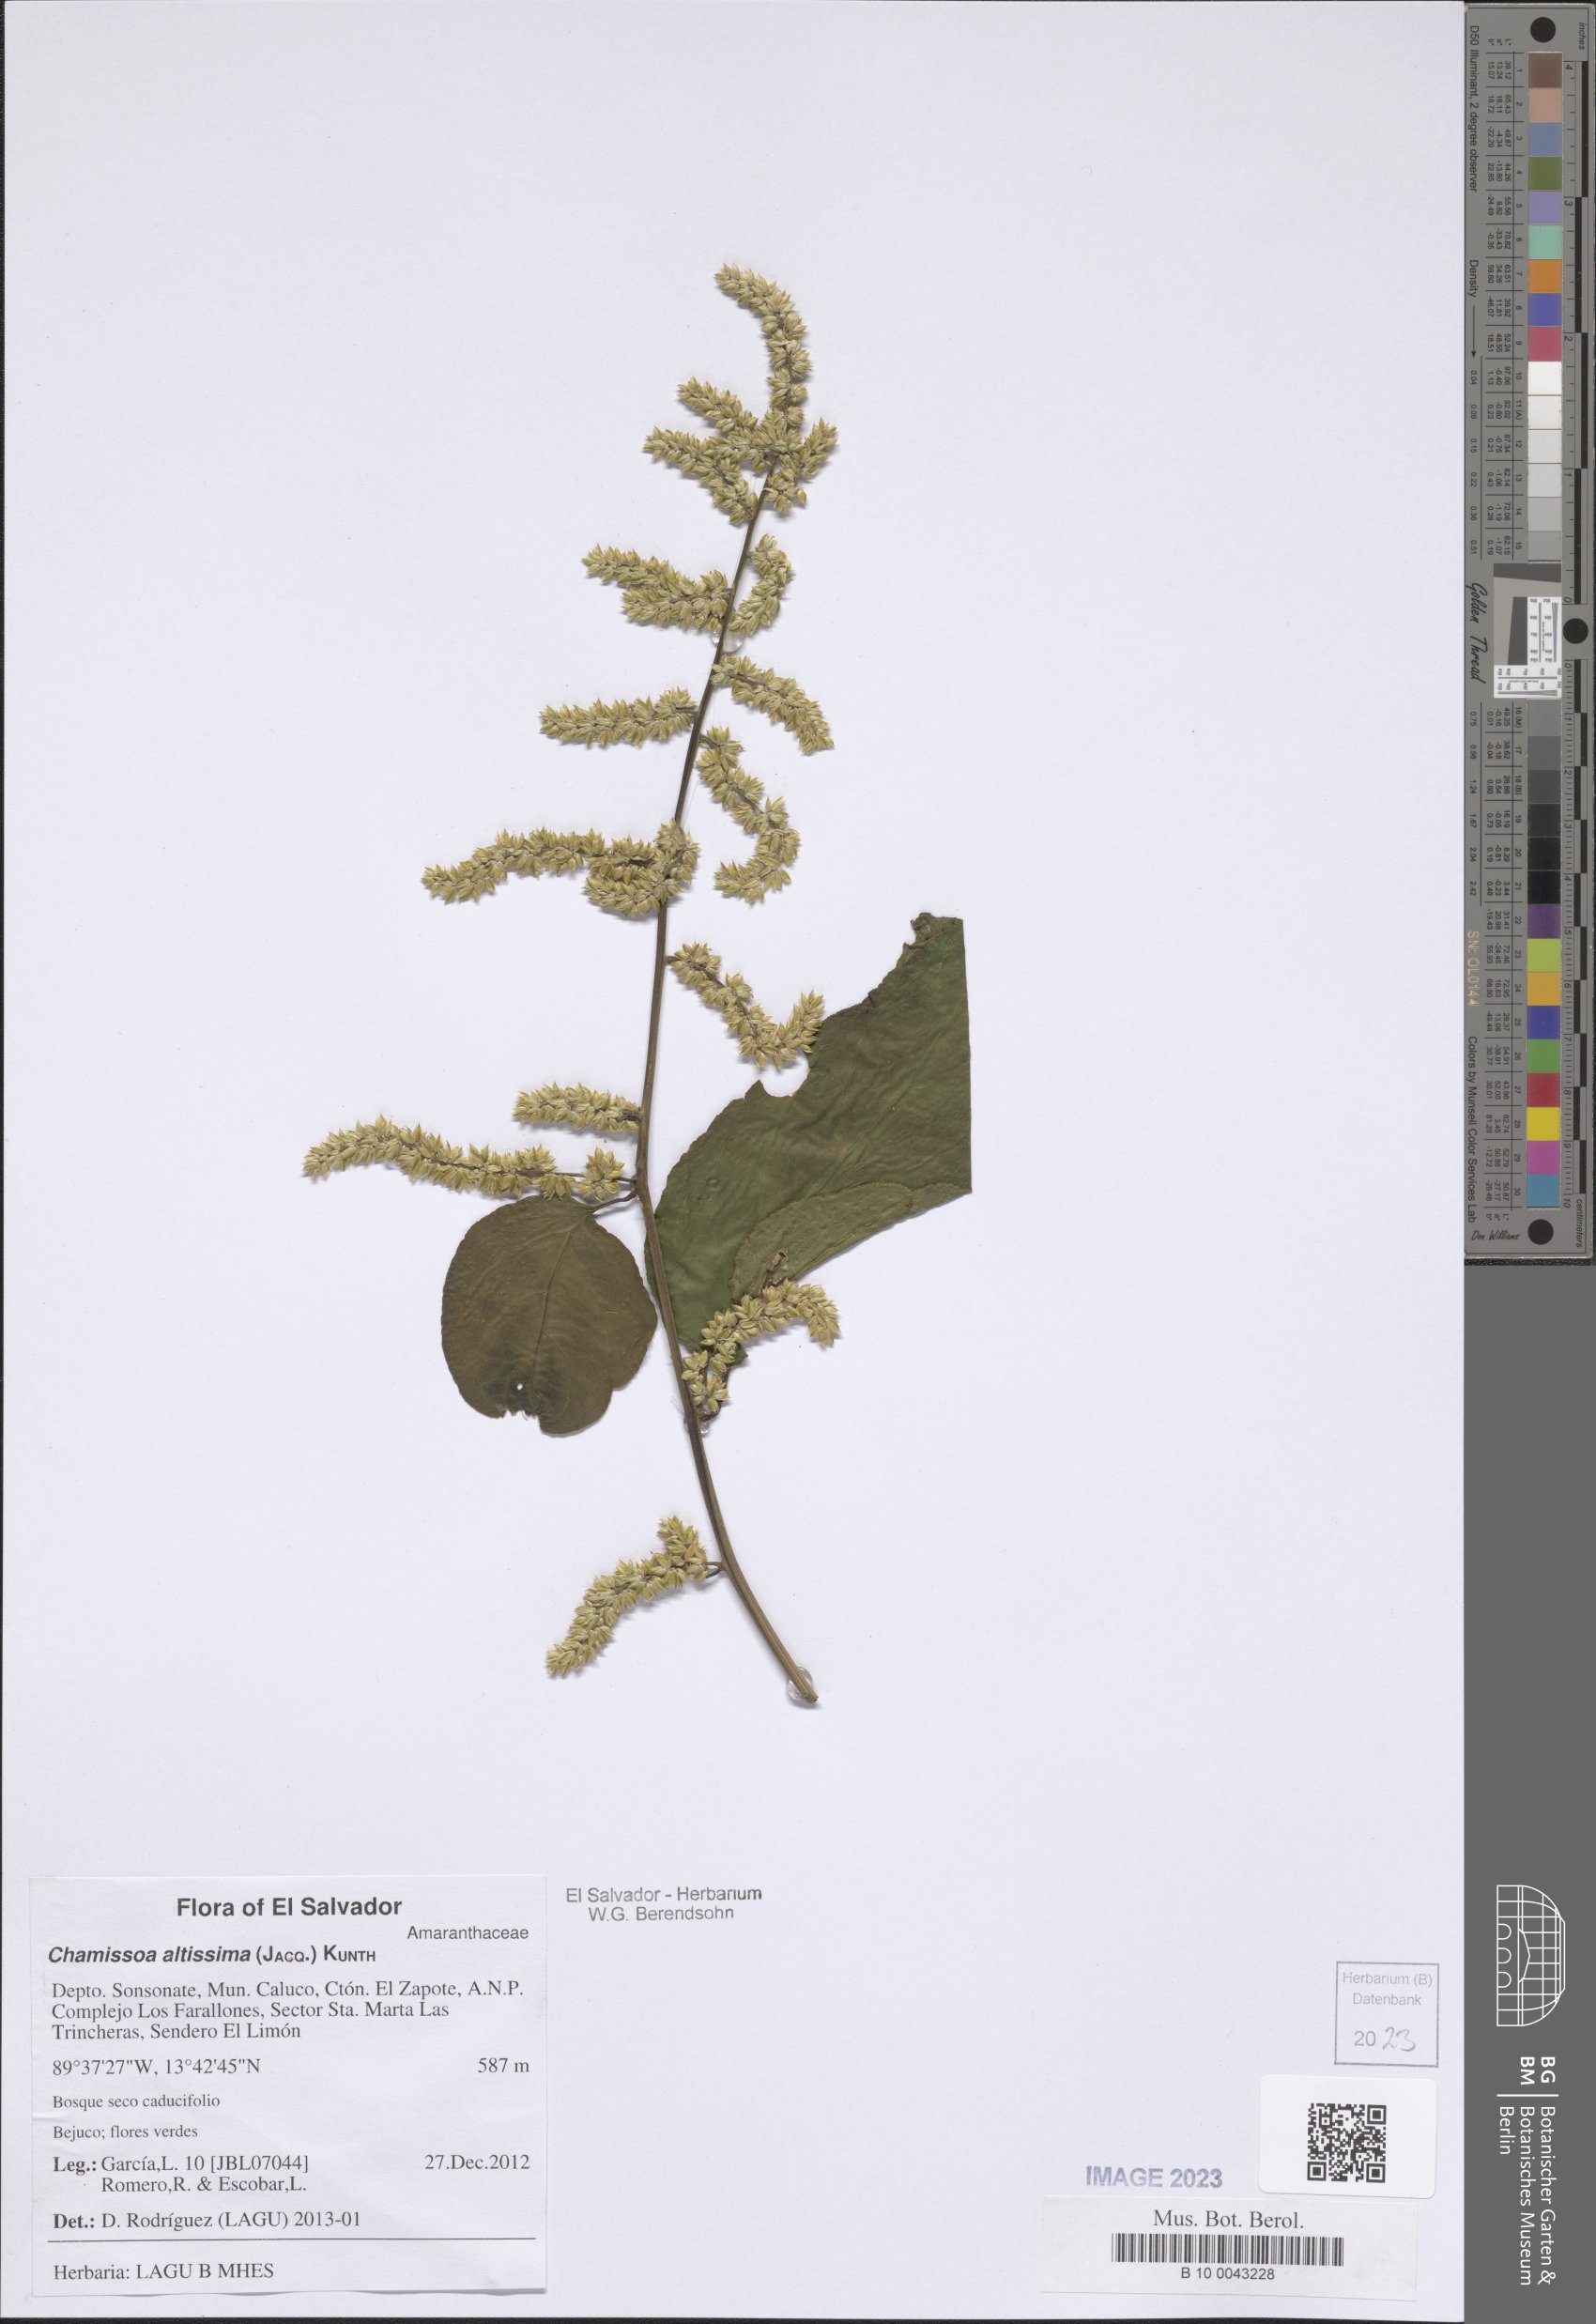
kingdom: Plantae
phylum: Tracheophyta
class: Magnoliopsida
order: Caryophyllales
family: Amaranthaceae
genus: Chamissoa
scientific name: Chamissoa altissima
